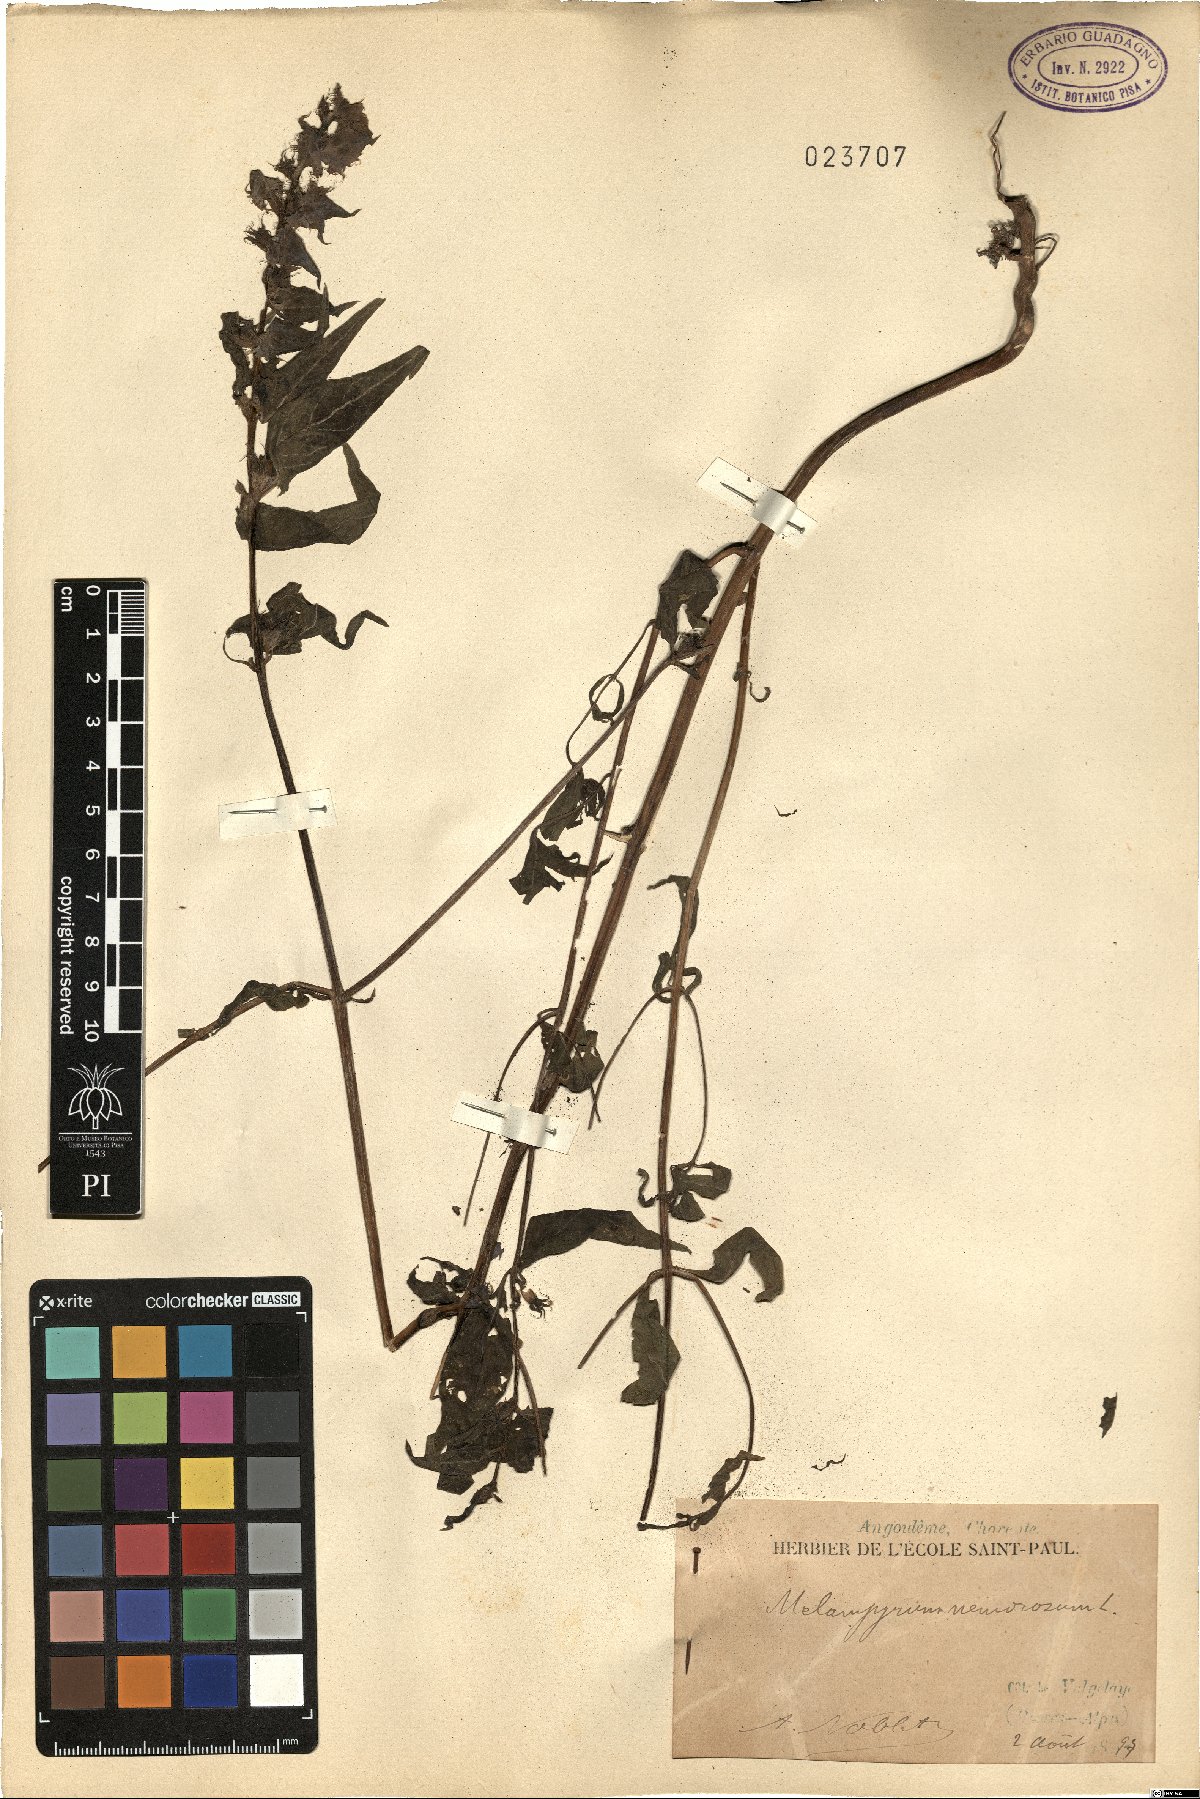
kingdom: Plantae
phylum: Tracheophyta
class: Magnoliopsida
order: Lamiales
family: Orobanchaceae
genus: Melampyrum
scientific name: Melampyrum nemorosum
